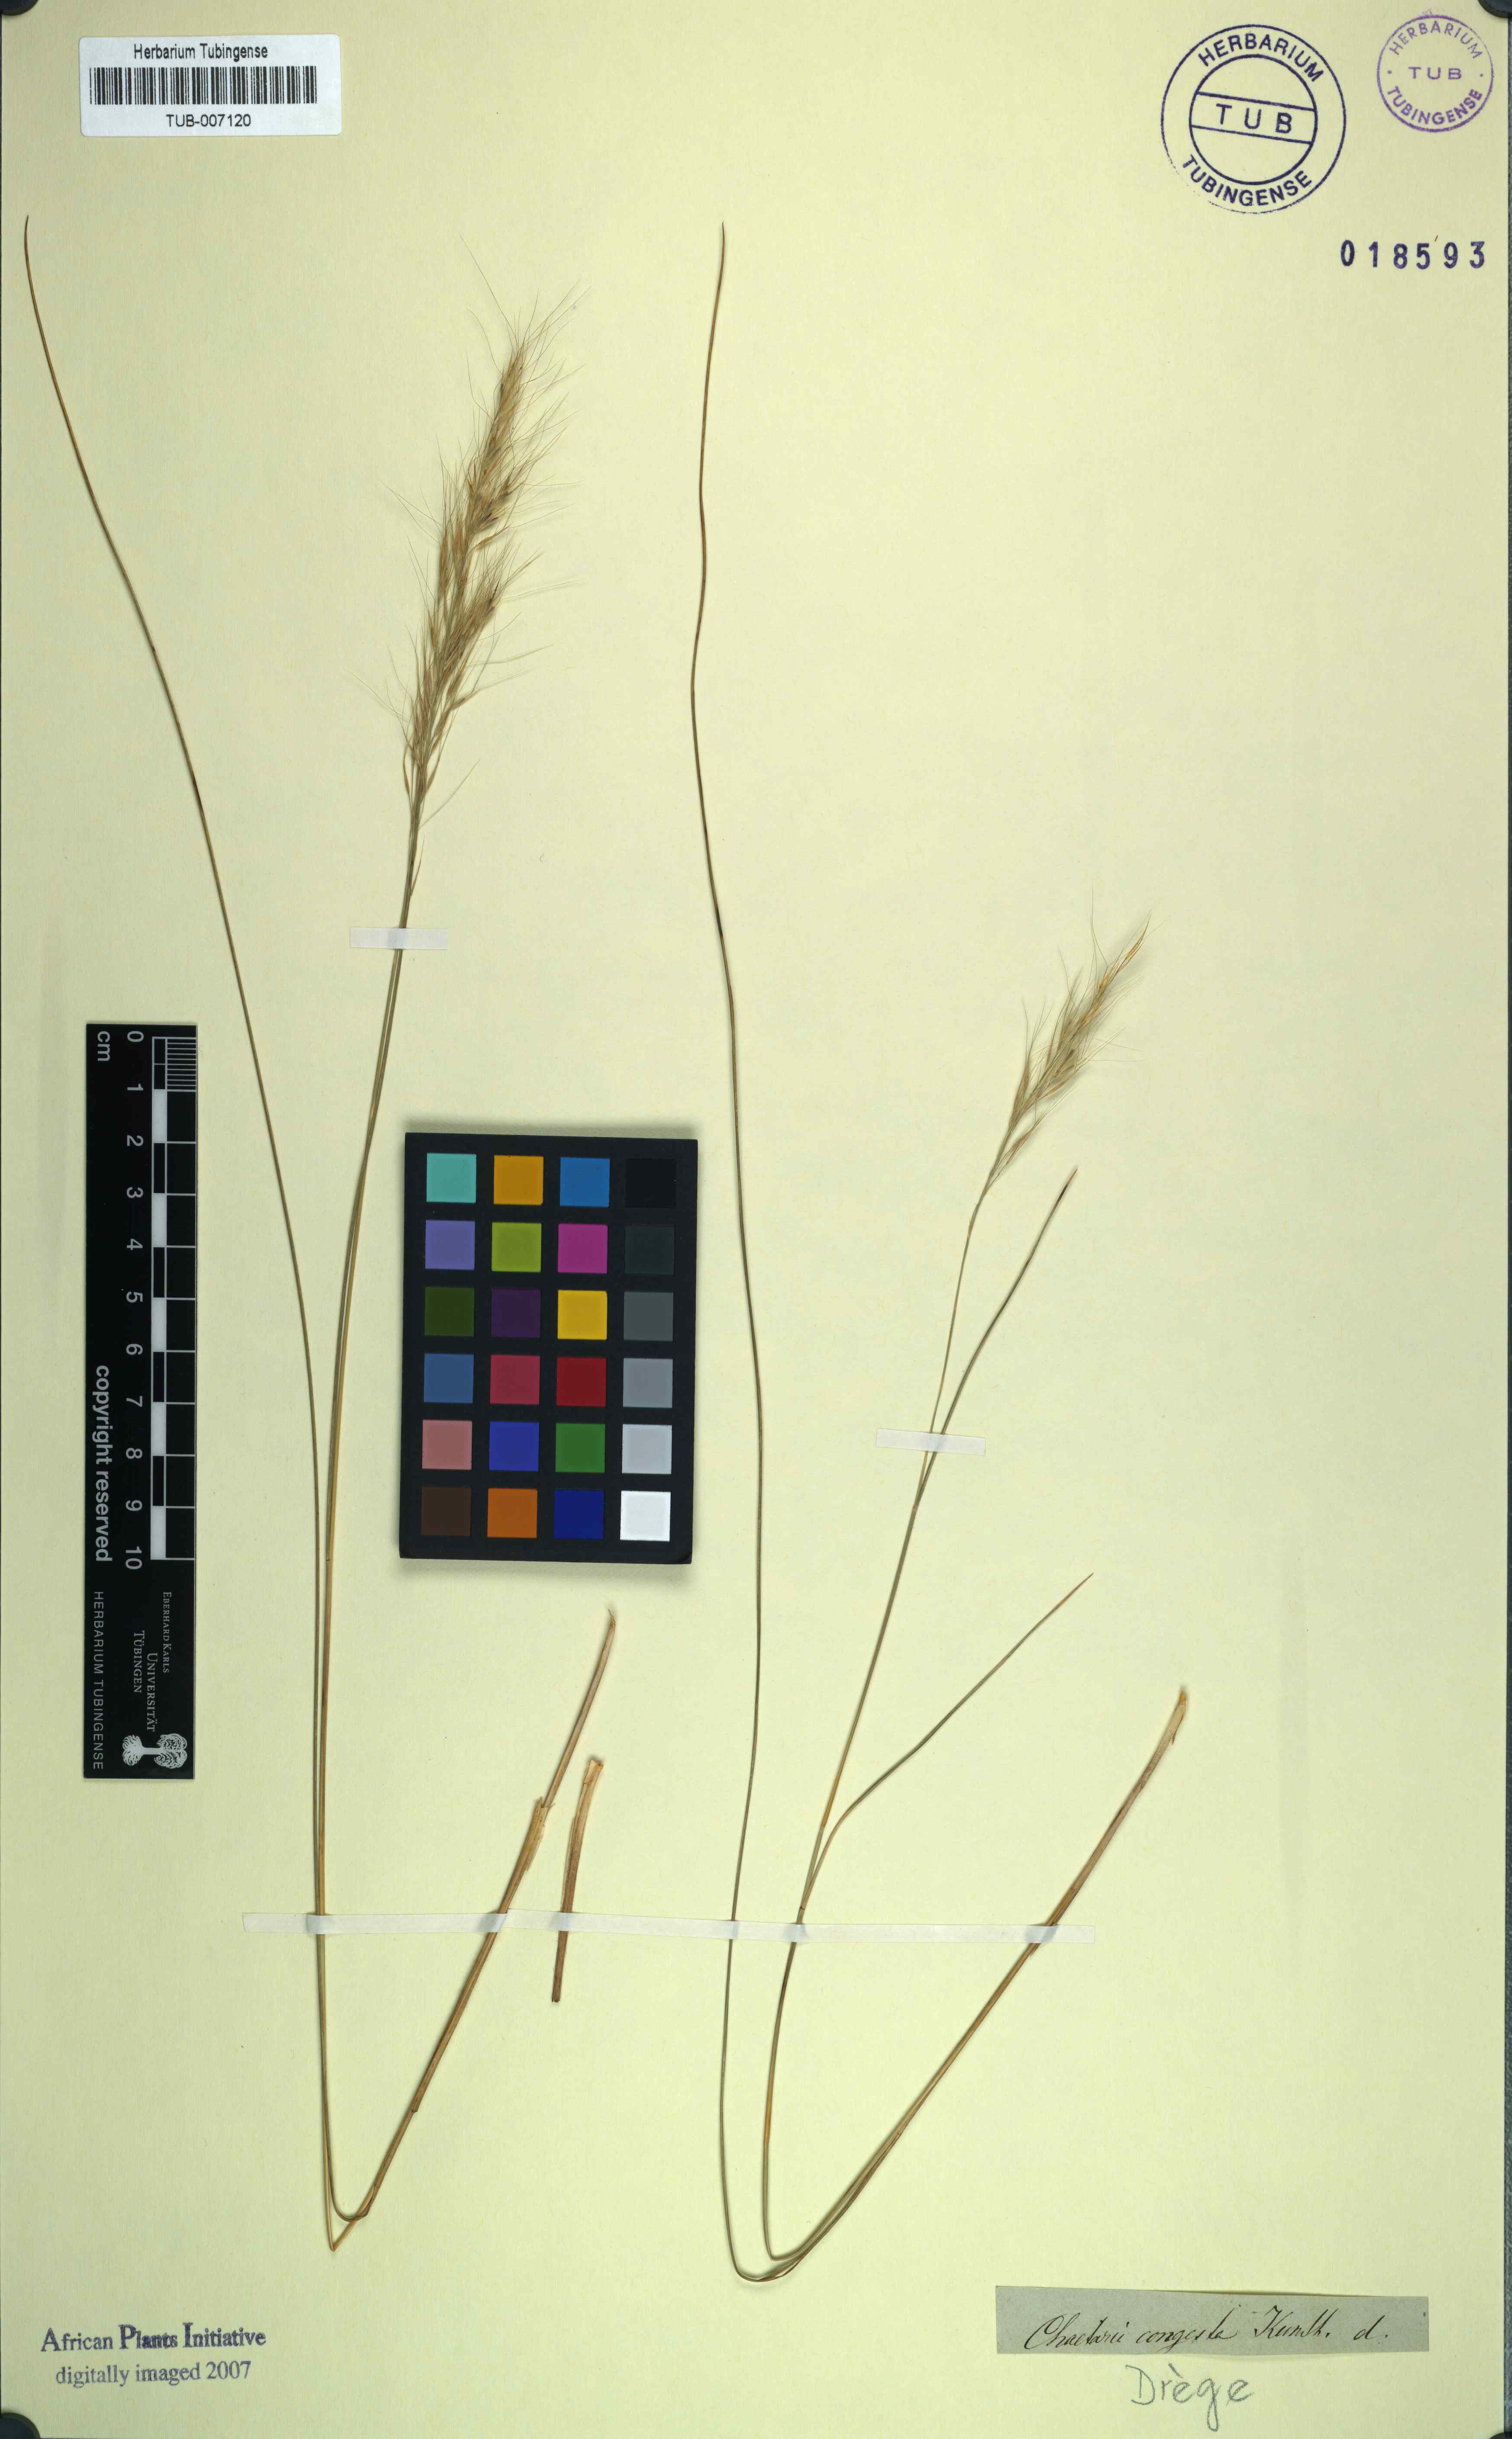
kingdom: Plantae
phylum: Tracheophyta
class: Liliopsida
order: Poales
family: Poaceae
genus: Aristida
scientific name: Aristida congesta
